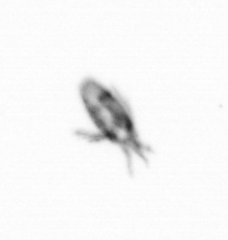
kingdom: Animalia
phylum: Arthropoda
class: Copepoda
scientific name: Copepoda
